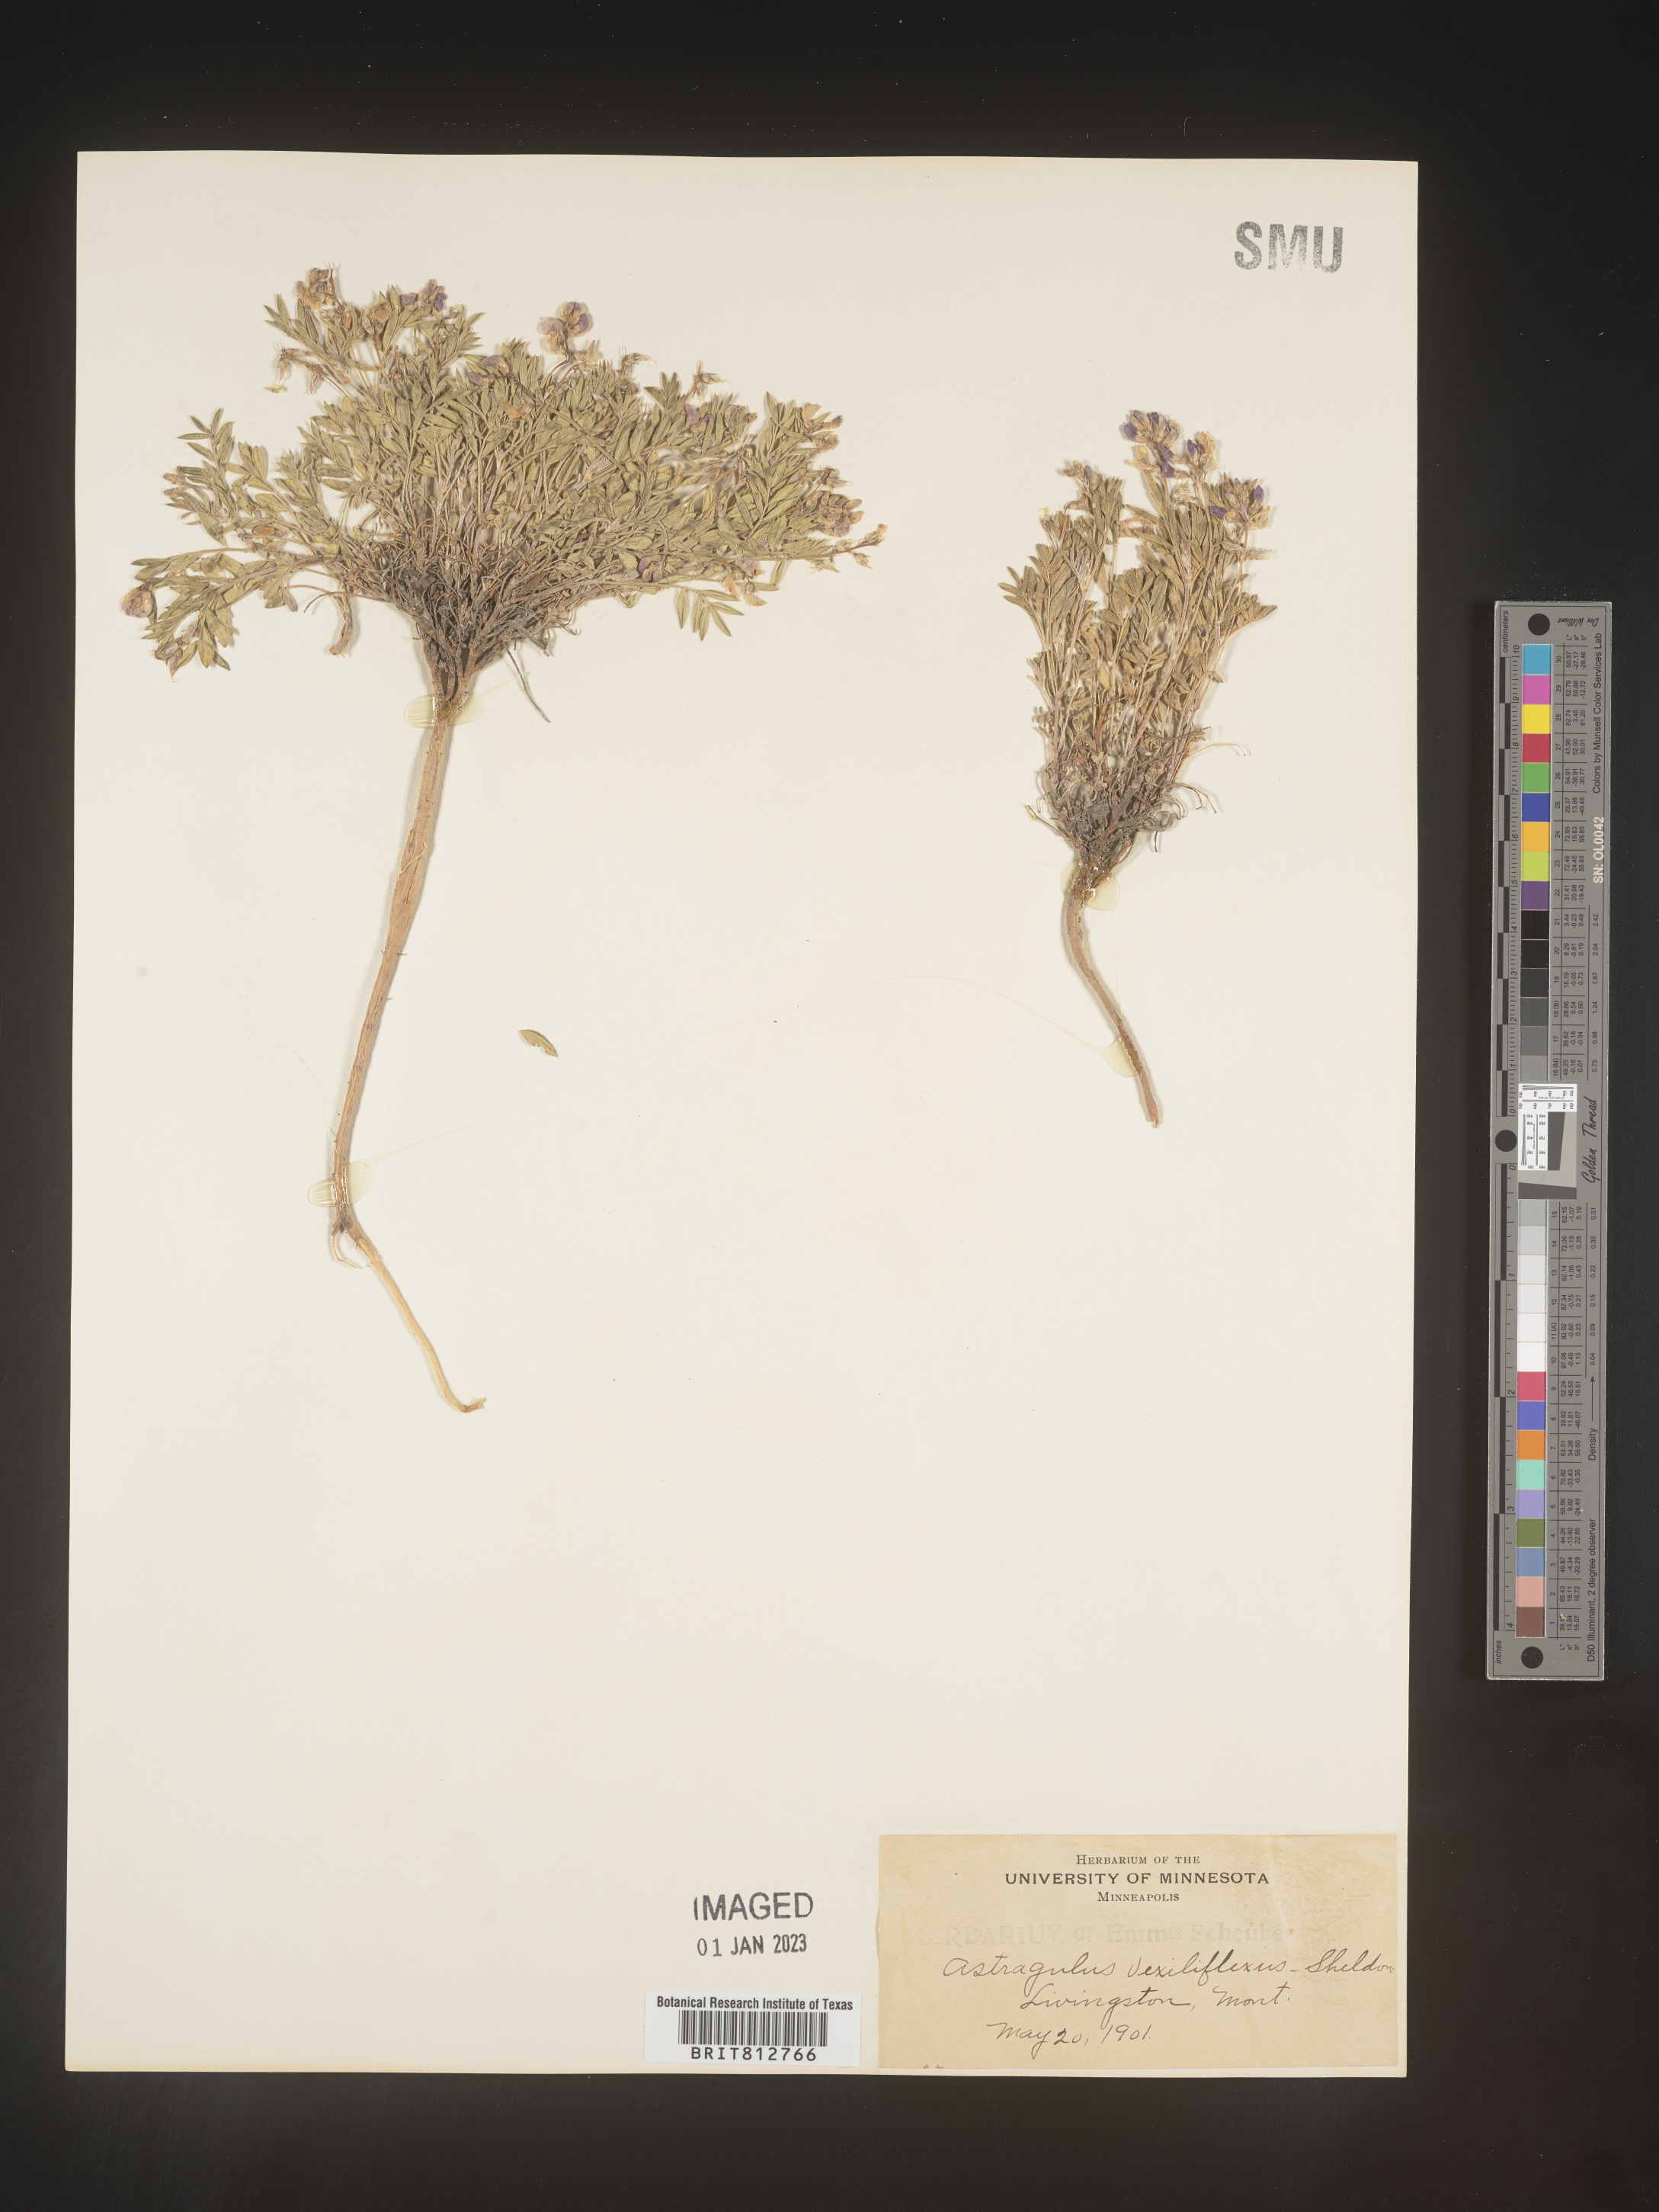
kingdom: Plantae
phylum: Tracheophyta
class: Magnoliopsida
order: Fabales
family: Fabaceae
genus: Astragalus
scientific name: Astragalus
